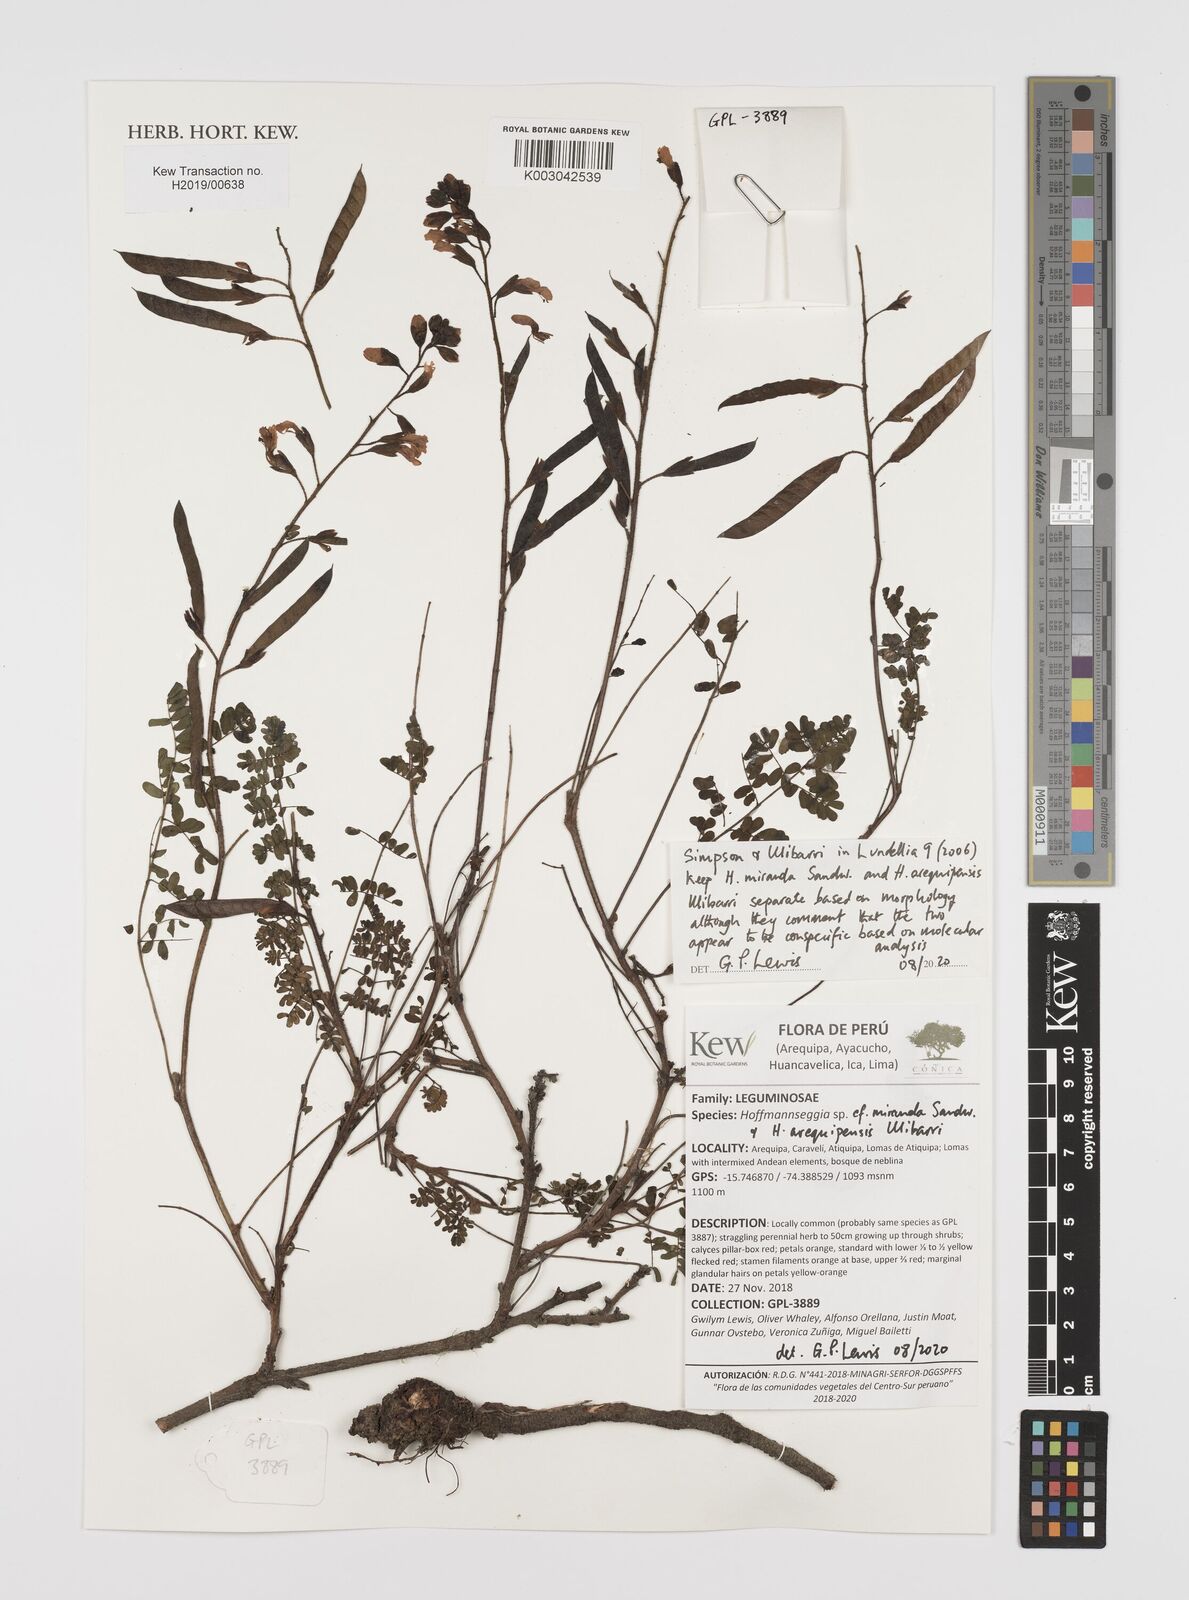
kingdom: Plantae
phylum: Tracheophyta
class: Magnoliopsida
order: Fabales
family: Fabaceae
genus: Hoffmannseggia
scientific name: Hoffmannseggia miranda
